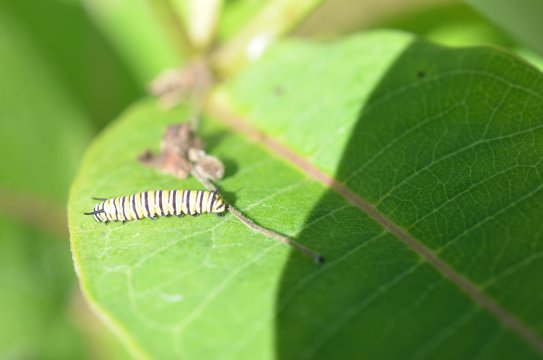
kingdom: Animalia
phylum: Arthropoda
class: Insecta
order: Lepidoptera
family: Nymphalidae
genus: Danaus
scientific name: Danaus plexippus
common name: Monarch
